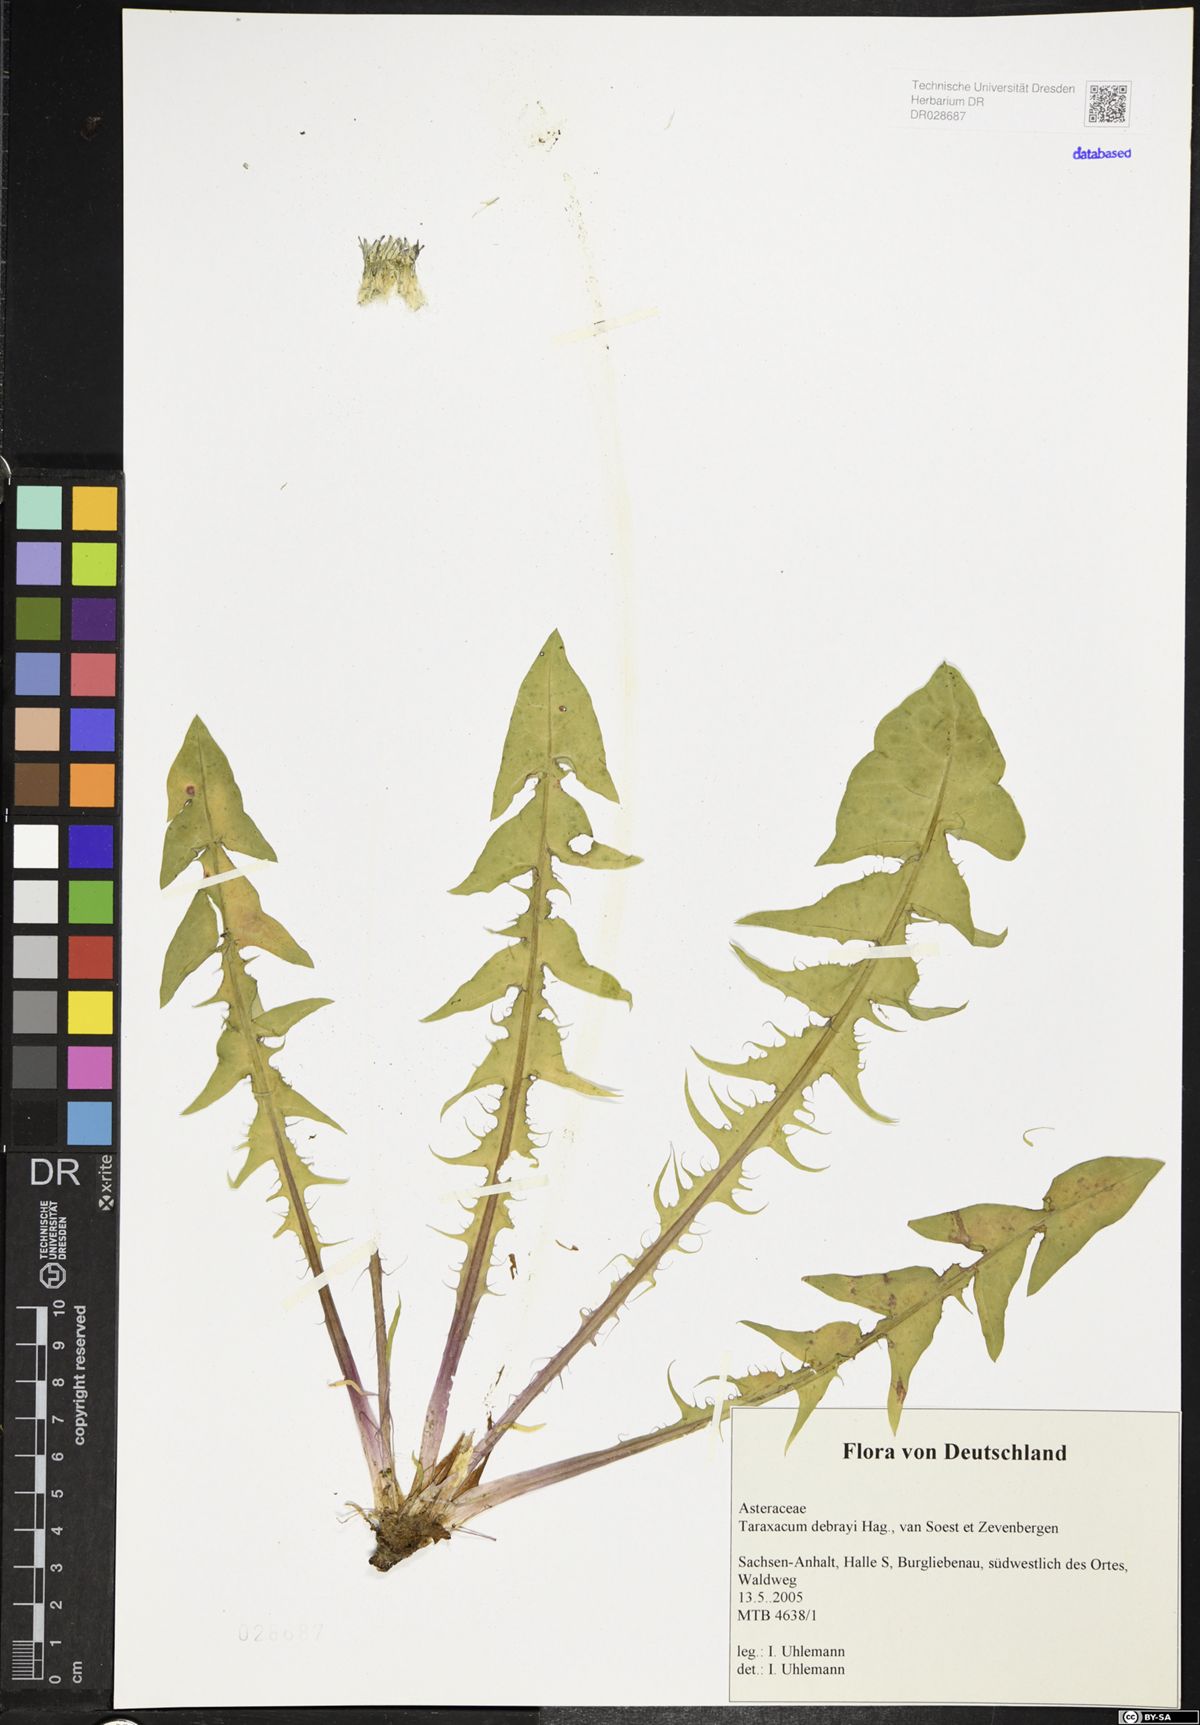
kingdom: Plantae
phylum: Tracheophyta
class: Magnoliopsida
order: Asterales
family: Asteraceae
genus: Taraxacum
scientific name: Taraxacum debrayi
